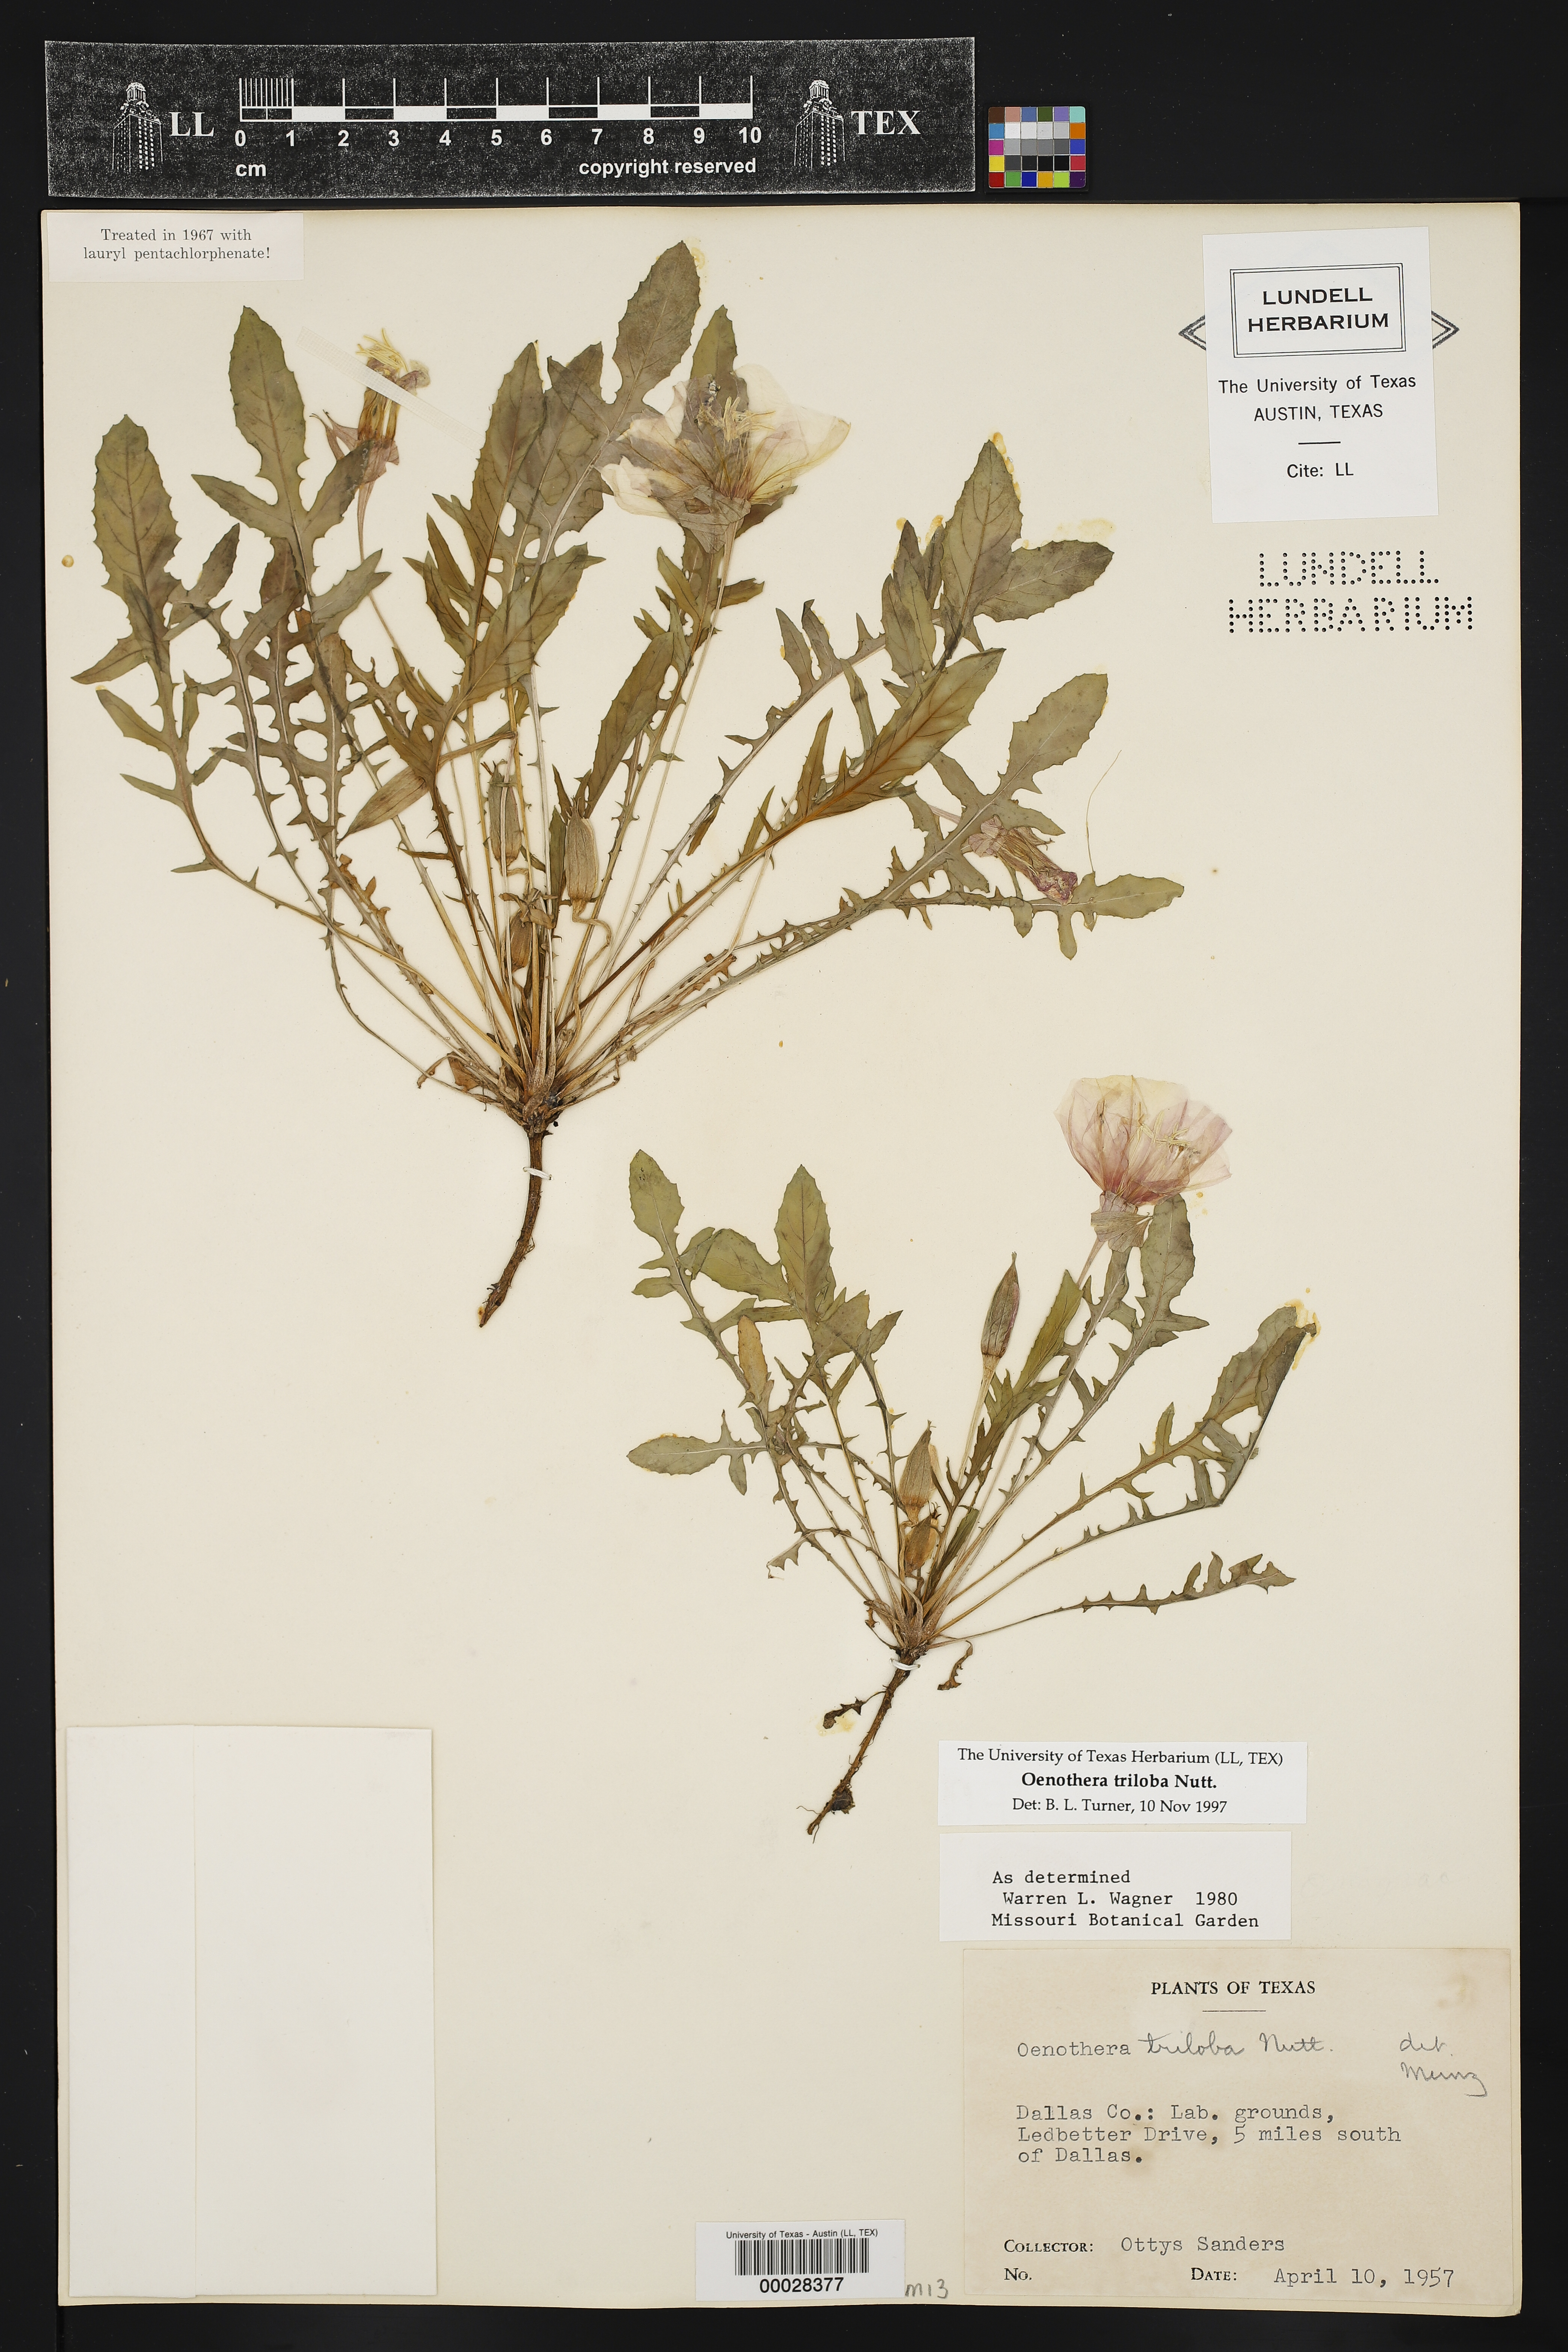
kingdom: Plantae
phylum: Tracheophyta
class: Magnoliopsida
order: Myrtales
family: Onagraceae
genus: Oenothera
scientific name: Oenothera triloba
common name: Sessile evening-primrose
